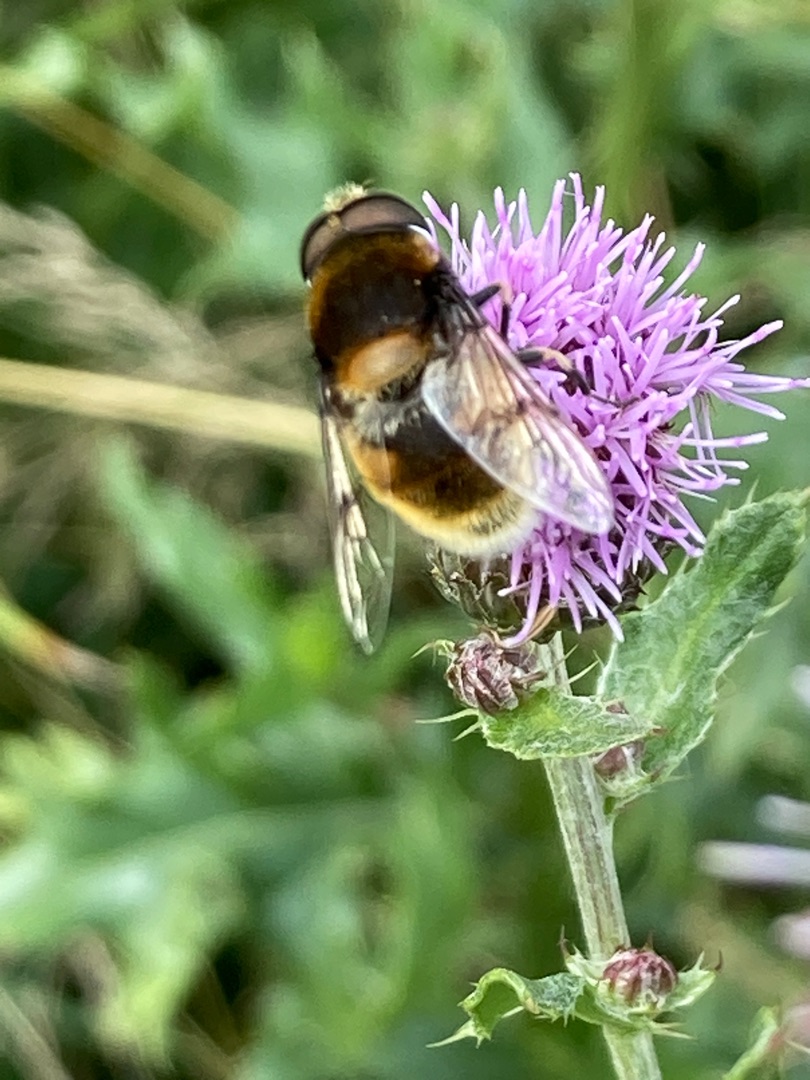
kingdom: Animalia
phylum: Arthropoda
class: Insecta
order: Diptera
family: Syrphidae
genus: Eristalis
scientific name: Eristalis intricaria
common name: Håret dyndflue
